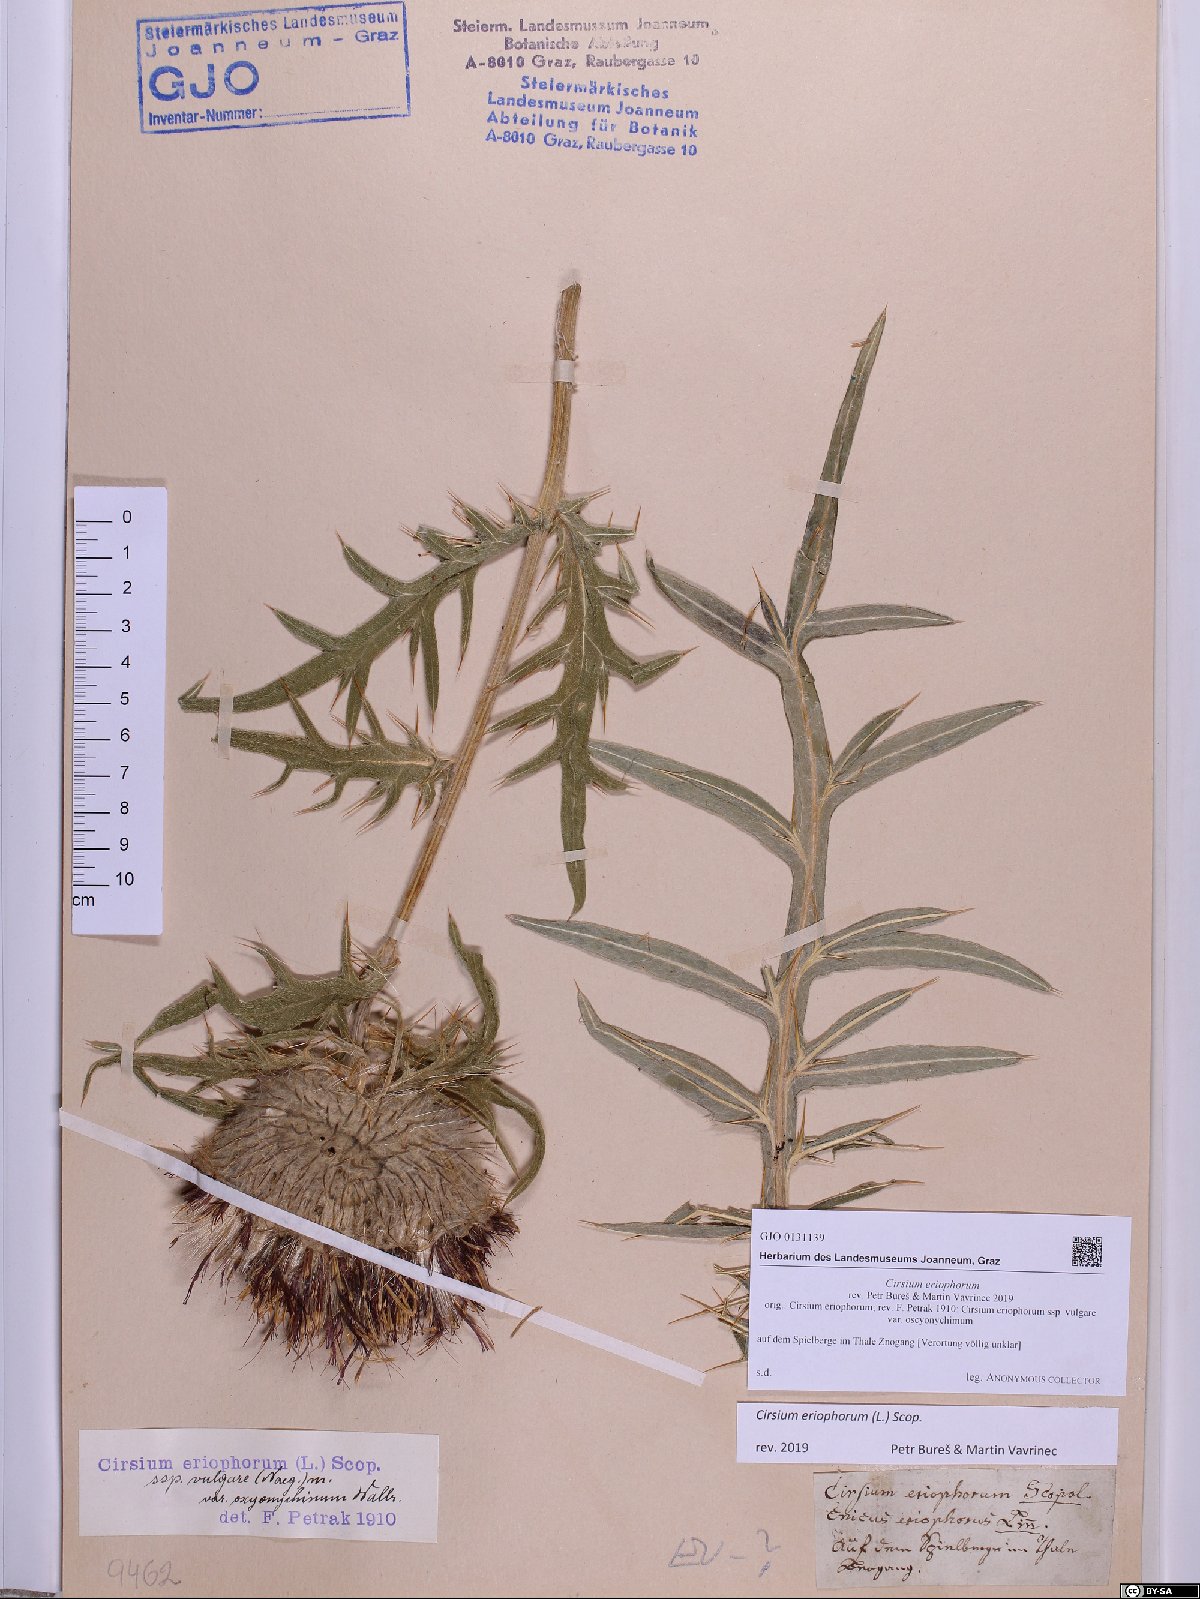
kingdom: Plantae
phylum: Tracheophyta
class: Magnoliopsida
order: Asterales
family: Asteraceae
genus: Lophiolepis
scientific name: Lophiolepis eriophora
